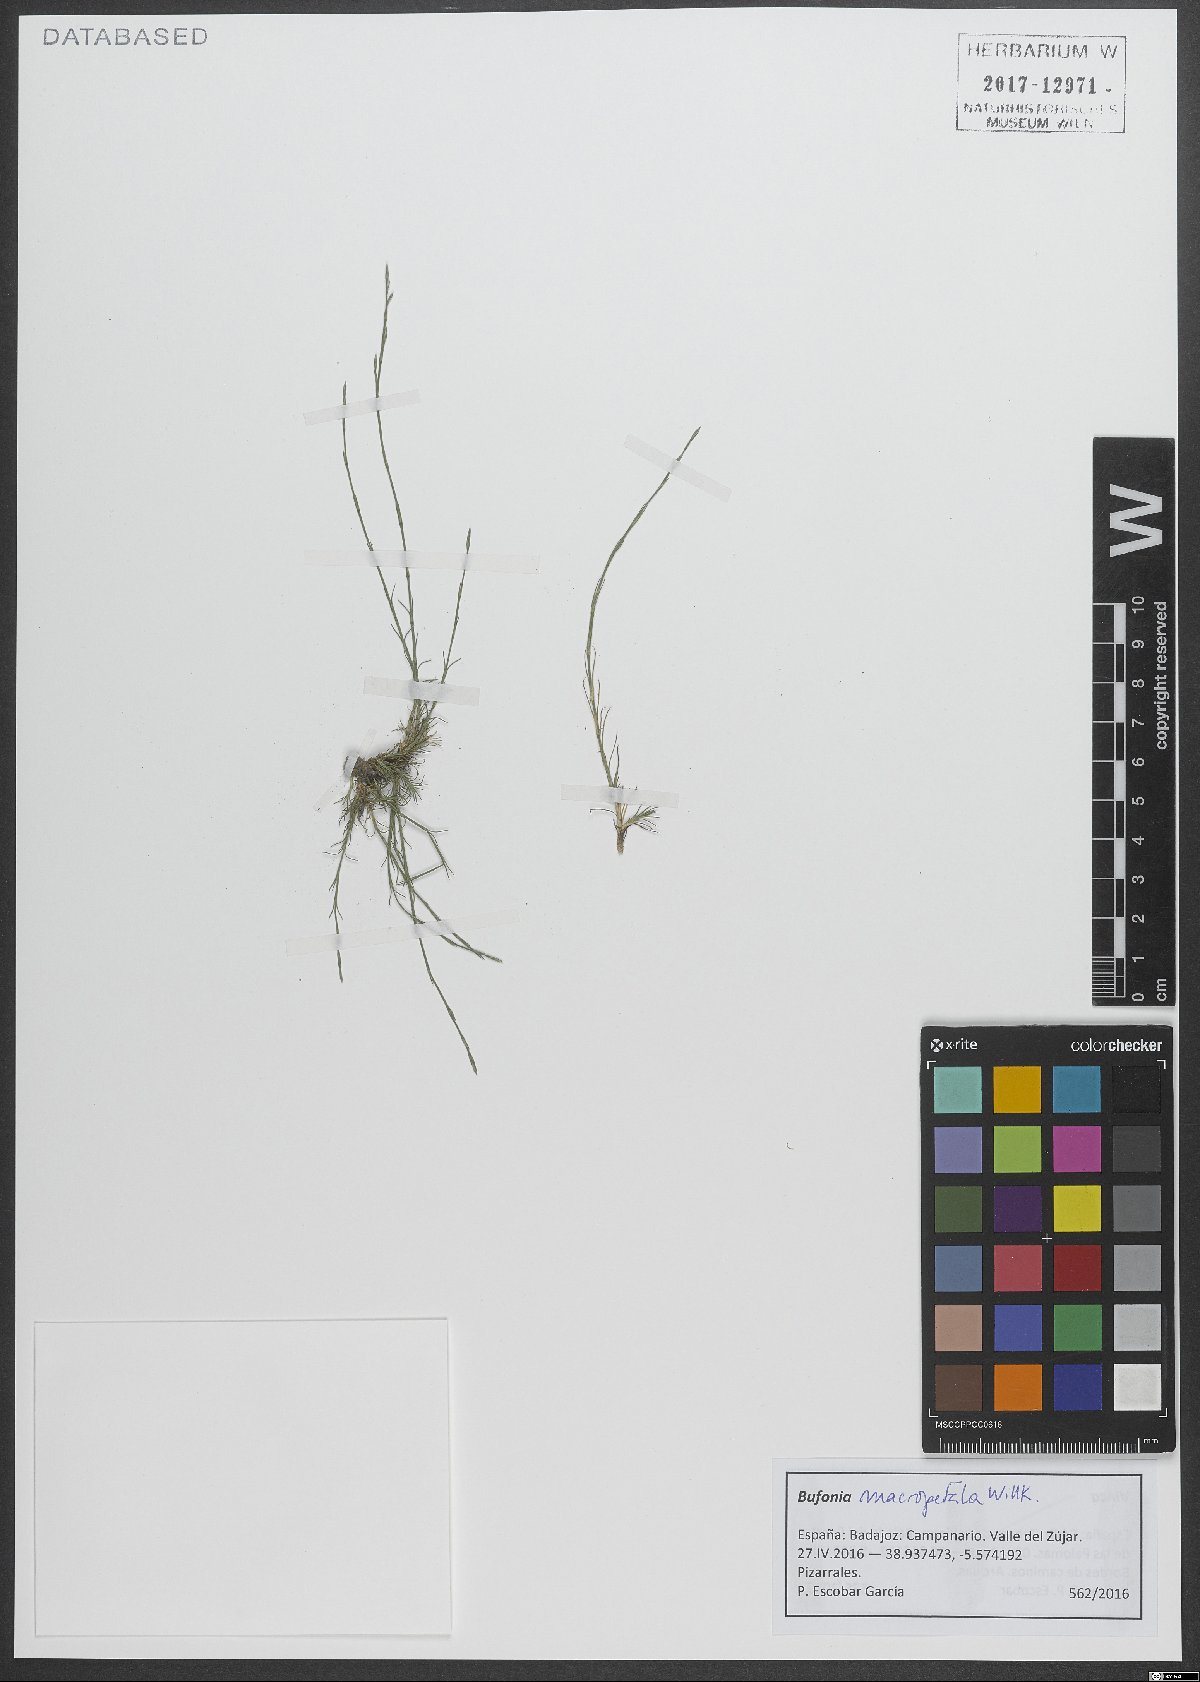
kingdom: Plantae
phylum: Tracheophyta
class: Magnoliopsida
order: Caryophyllales
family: Caryophyllaceae
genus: Bufonia
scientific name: Bufonia macropetala
